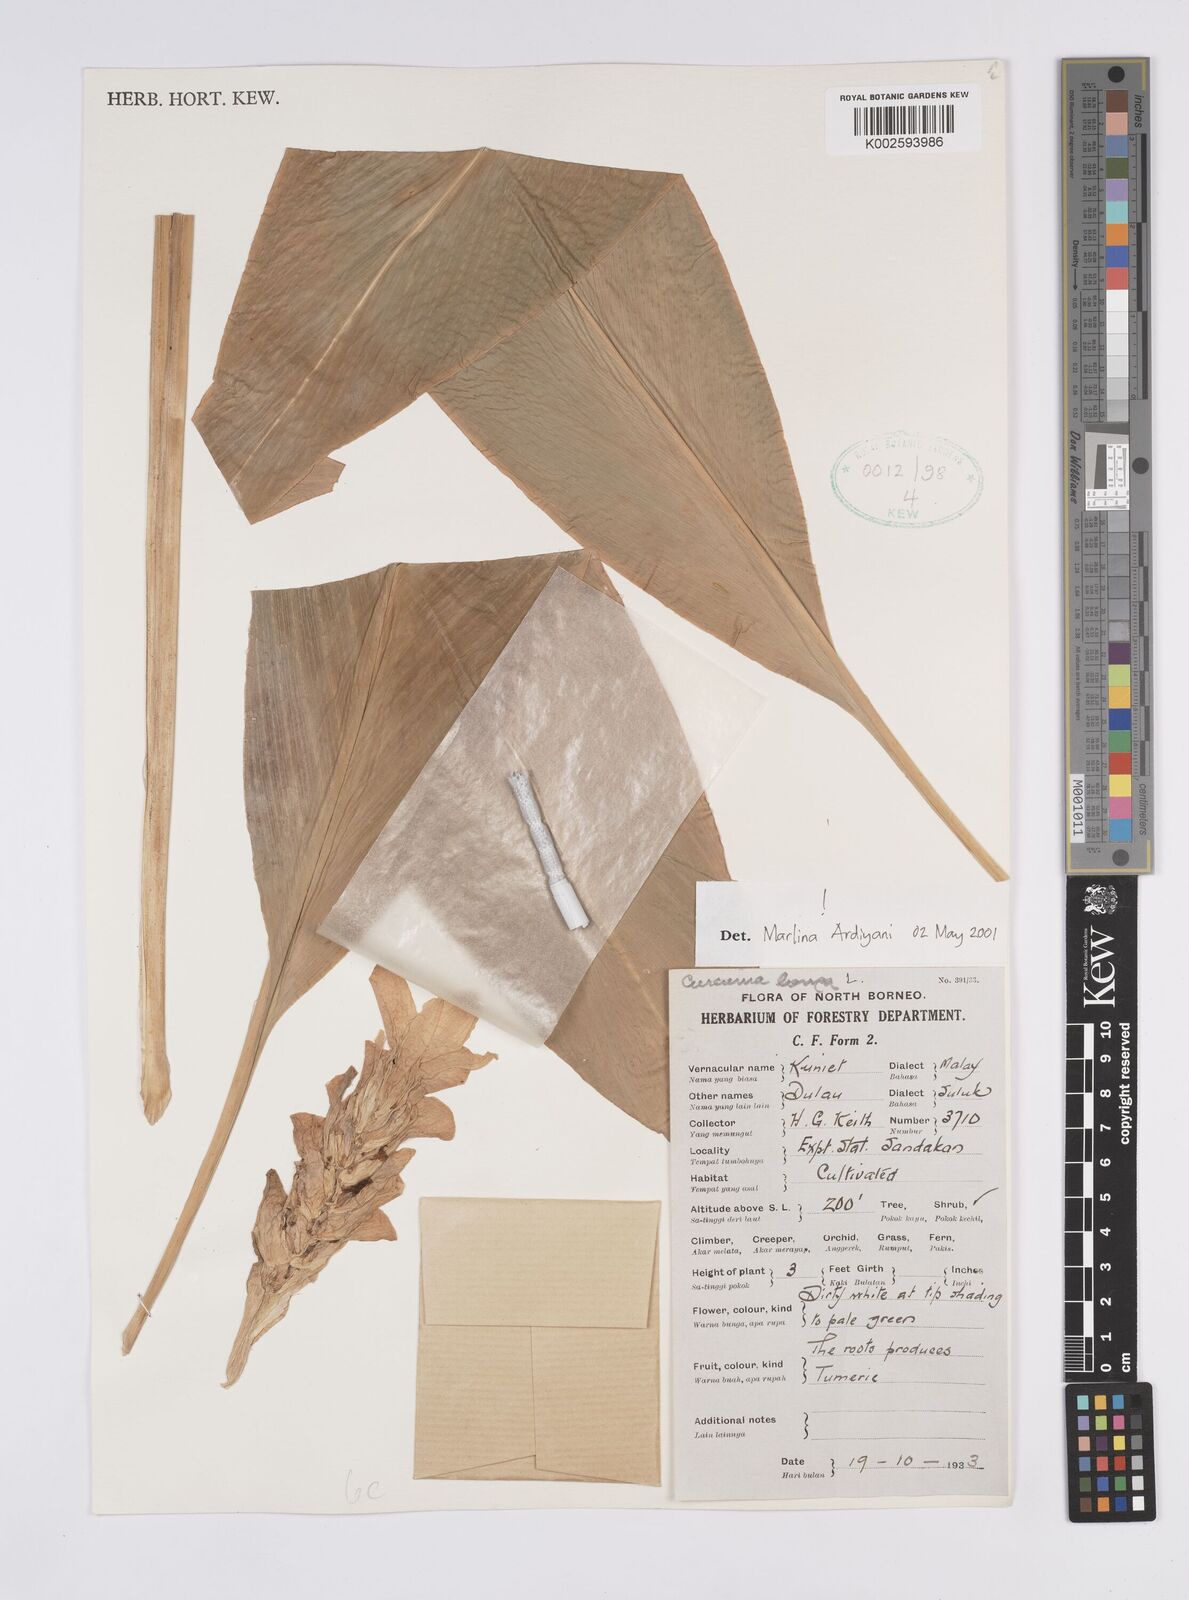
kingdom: Plantae
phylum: Tracheophyta
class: Liliopsida
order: Zingiberales
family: Zingiberaceae
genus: Curcuma
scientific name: Curcuma longa
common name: Turmeric
